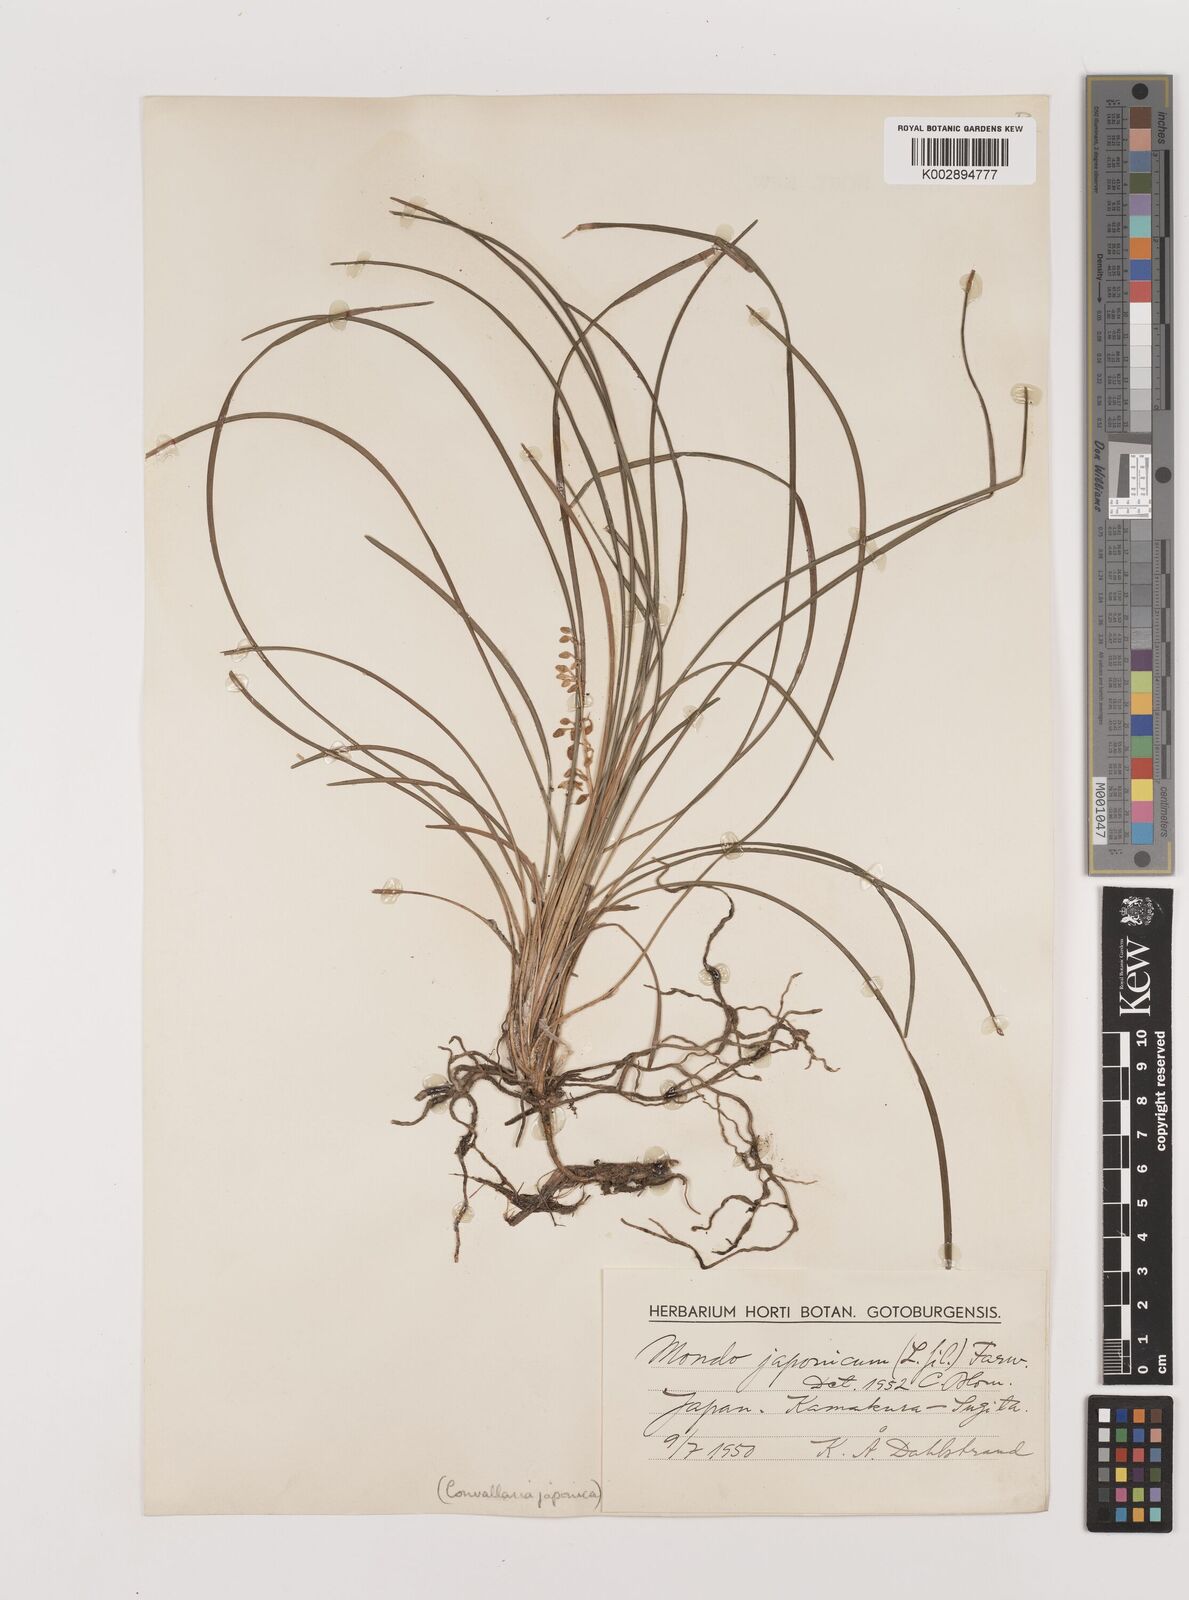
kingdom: Plantae
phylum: Tracheophyta
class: Liliopsida
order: Asparagales
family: Asparagaceae
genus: Ophiopogon
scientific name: Ophiopogon japonicus
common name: Dwarf lilyturf
